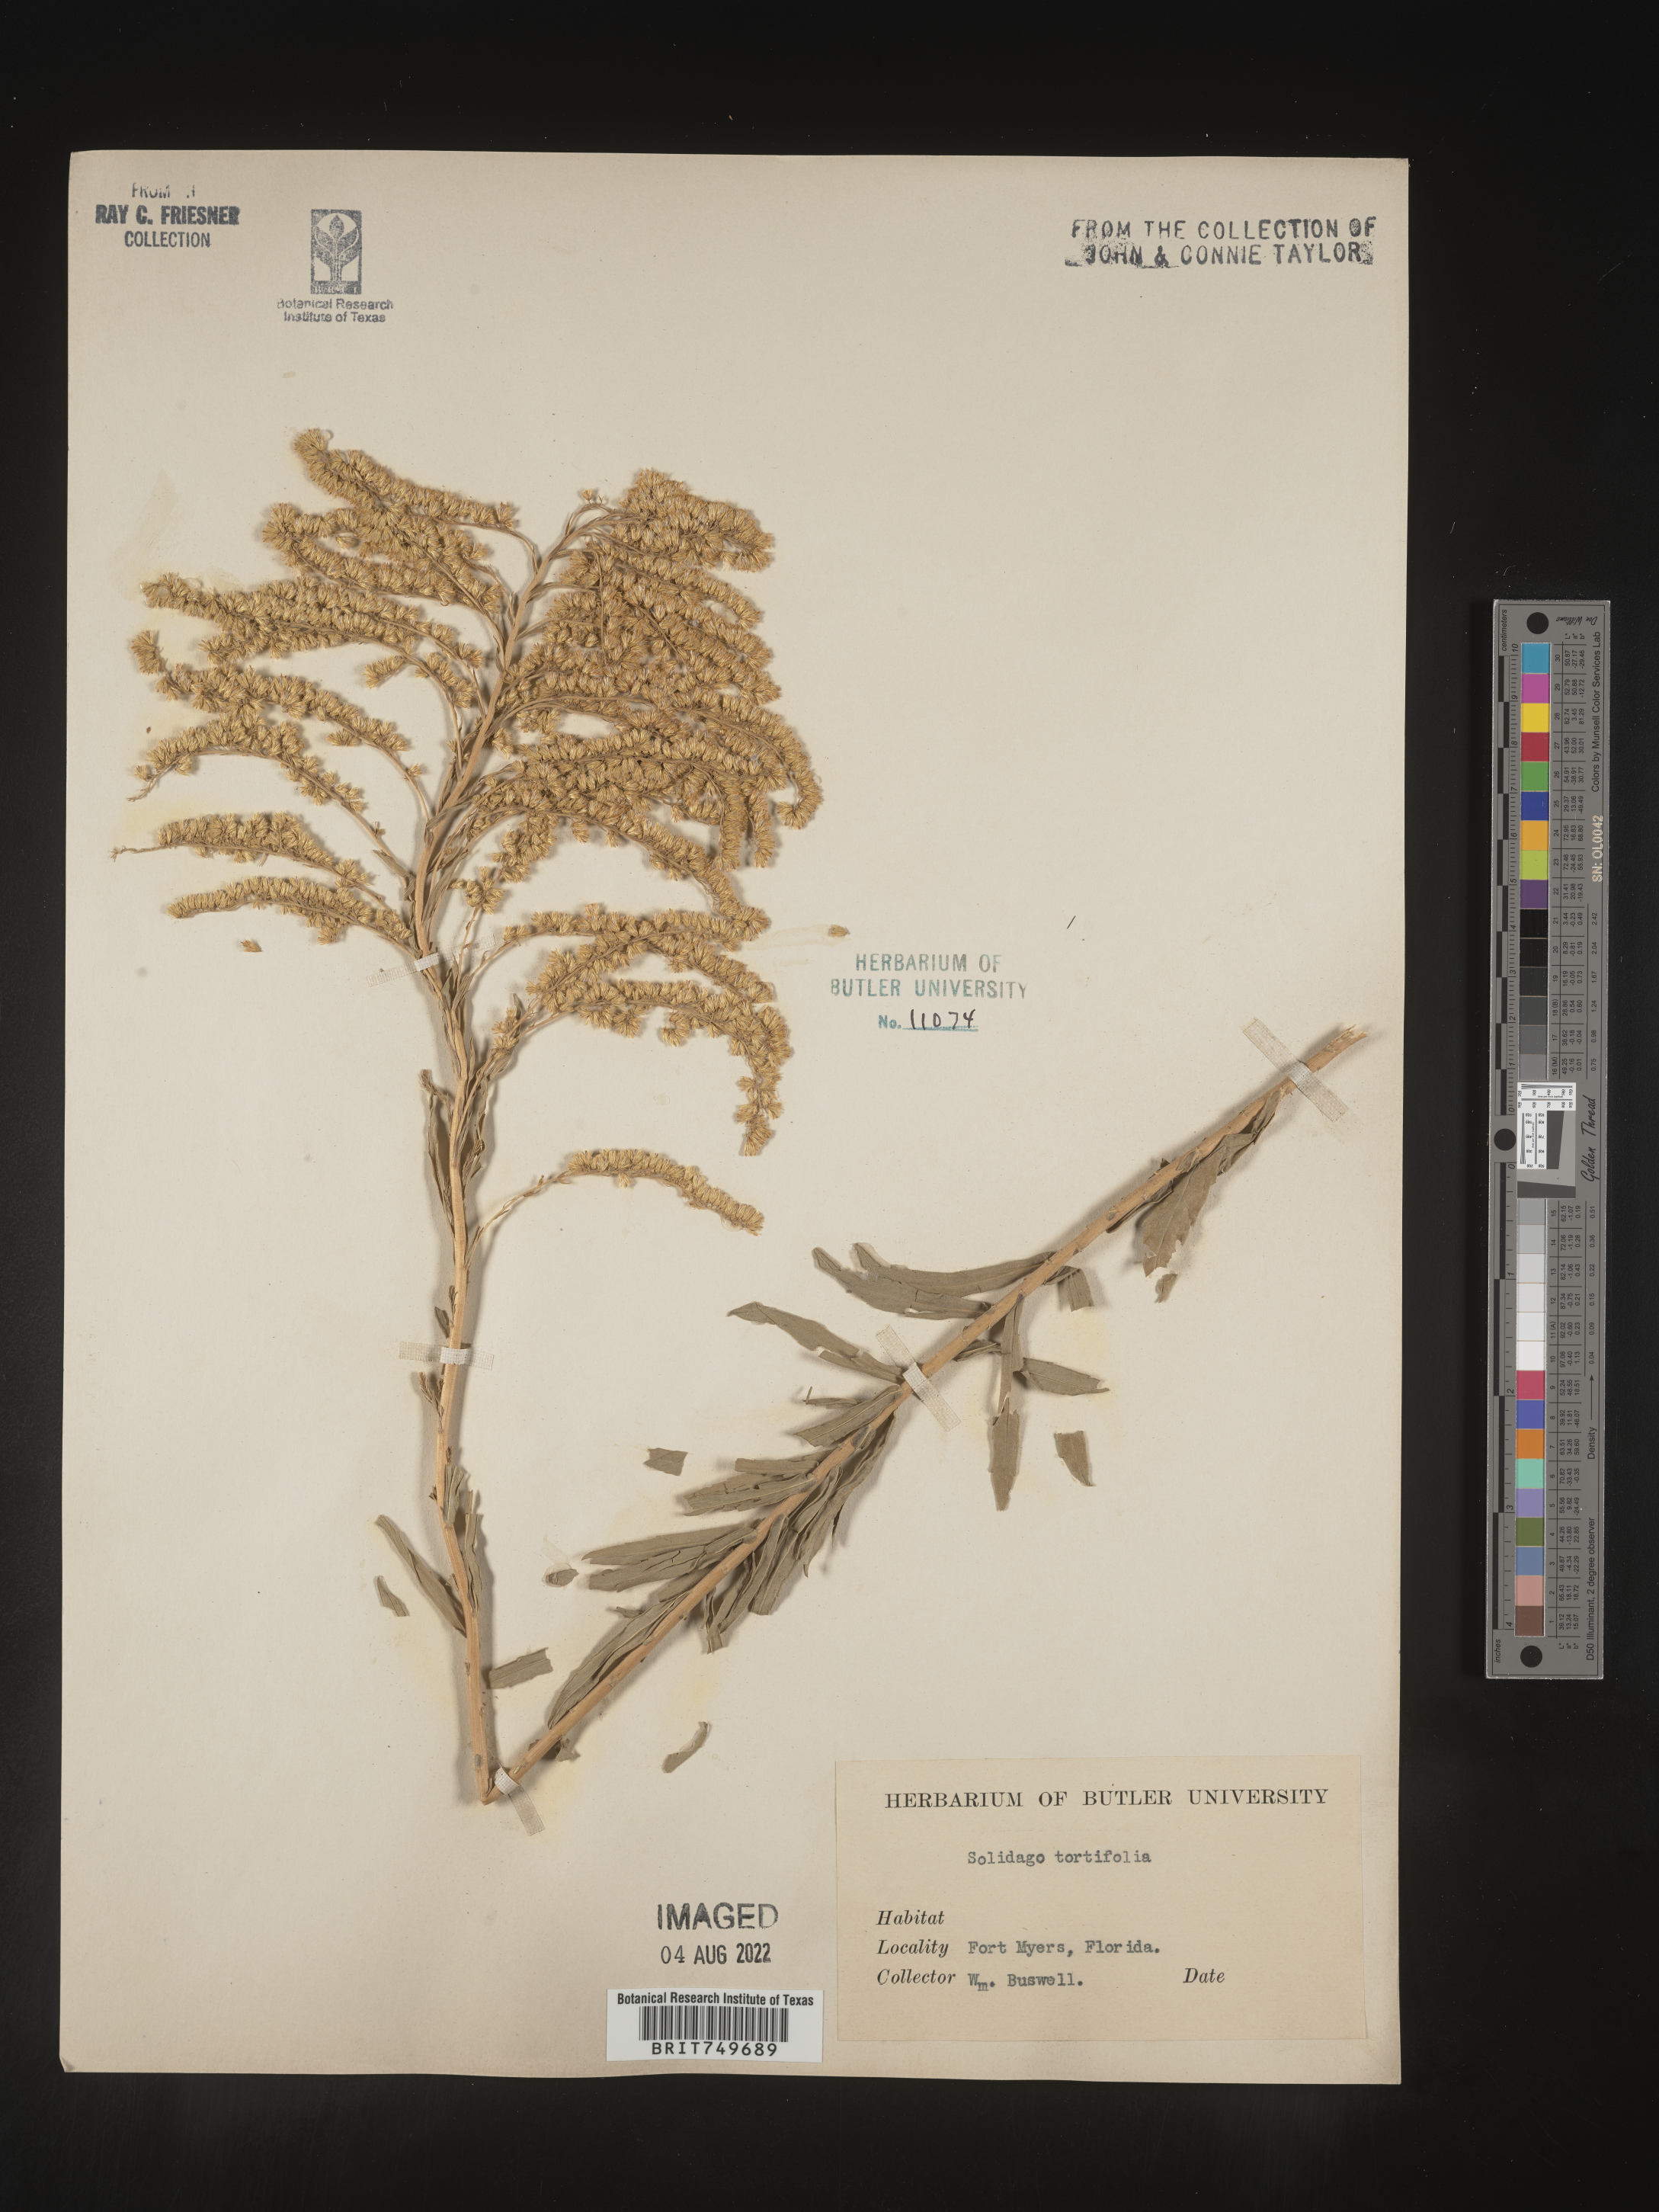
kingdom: Plantae
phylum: Tracheophyta
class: Magnoliopsida
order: Asterales
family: Asteraceae
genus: Solidago
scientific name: Solidago tortifolia
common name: Twisted-leaf goldenrod
